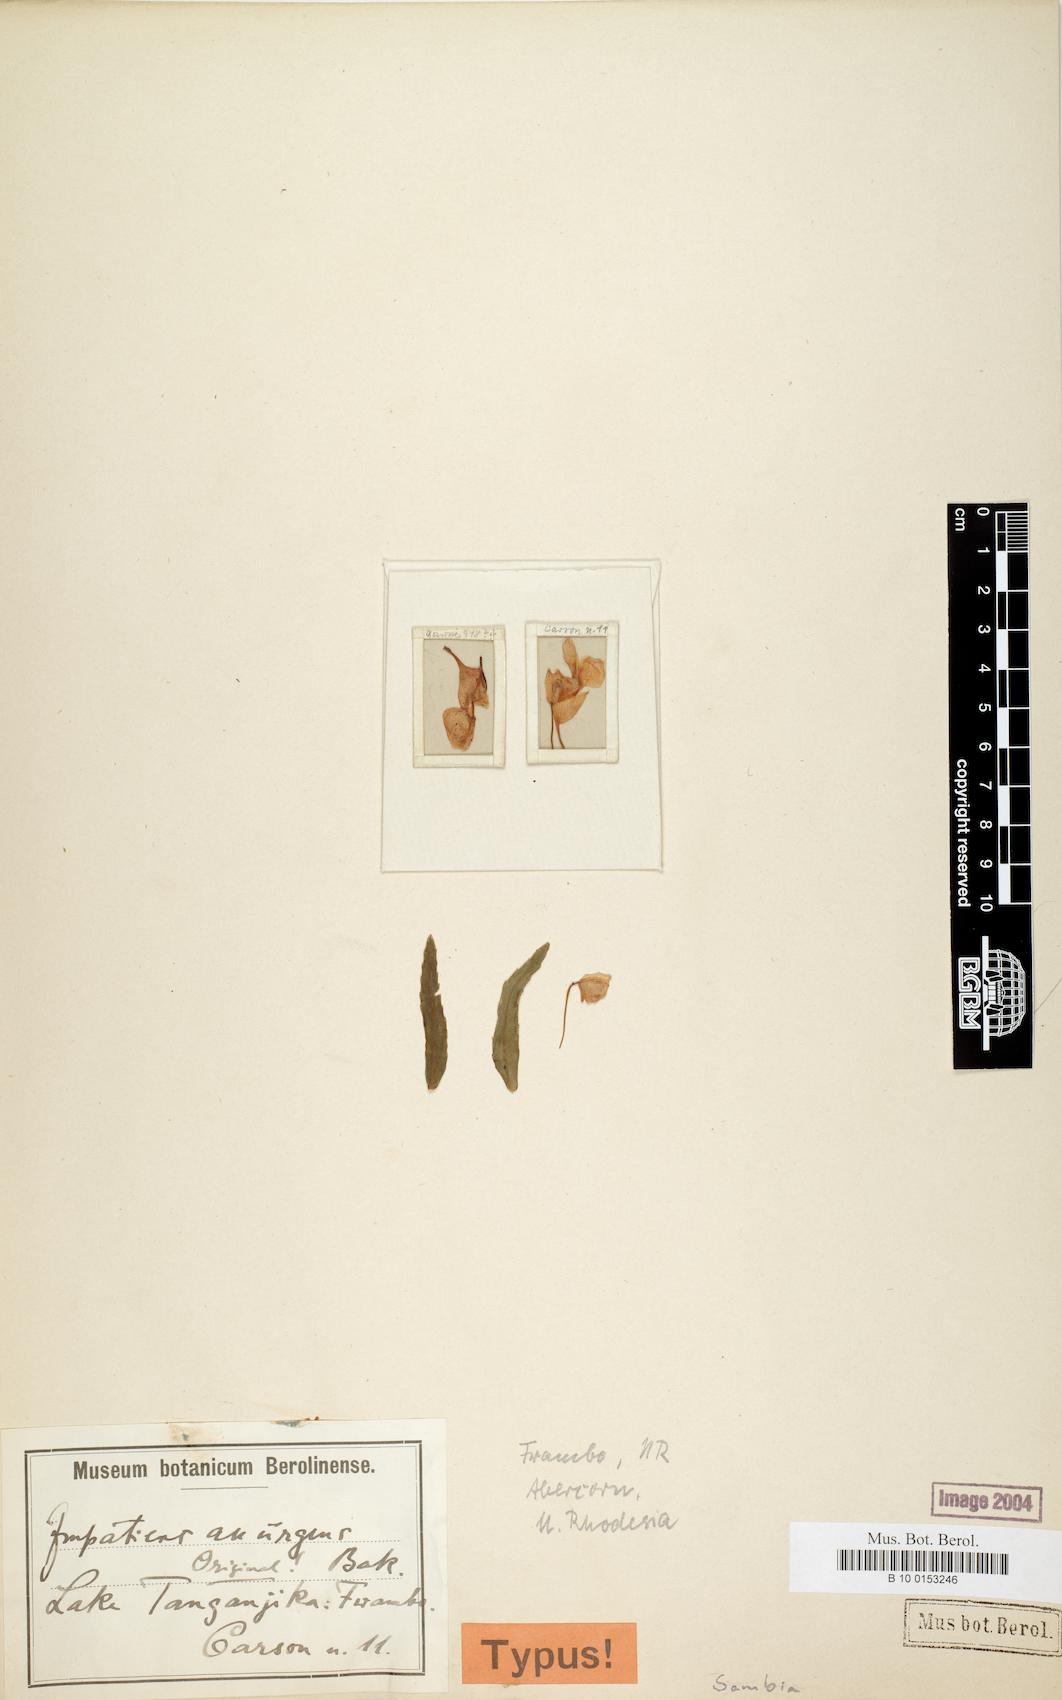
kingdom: Plantae
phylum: Tracheophyta
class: Magnoliopsida
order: Ericales
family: Balsaminaceae
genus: Impatiens
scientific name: Impatiens assurgens
